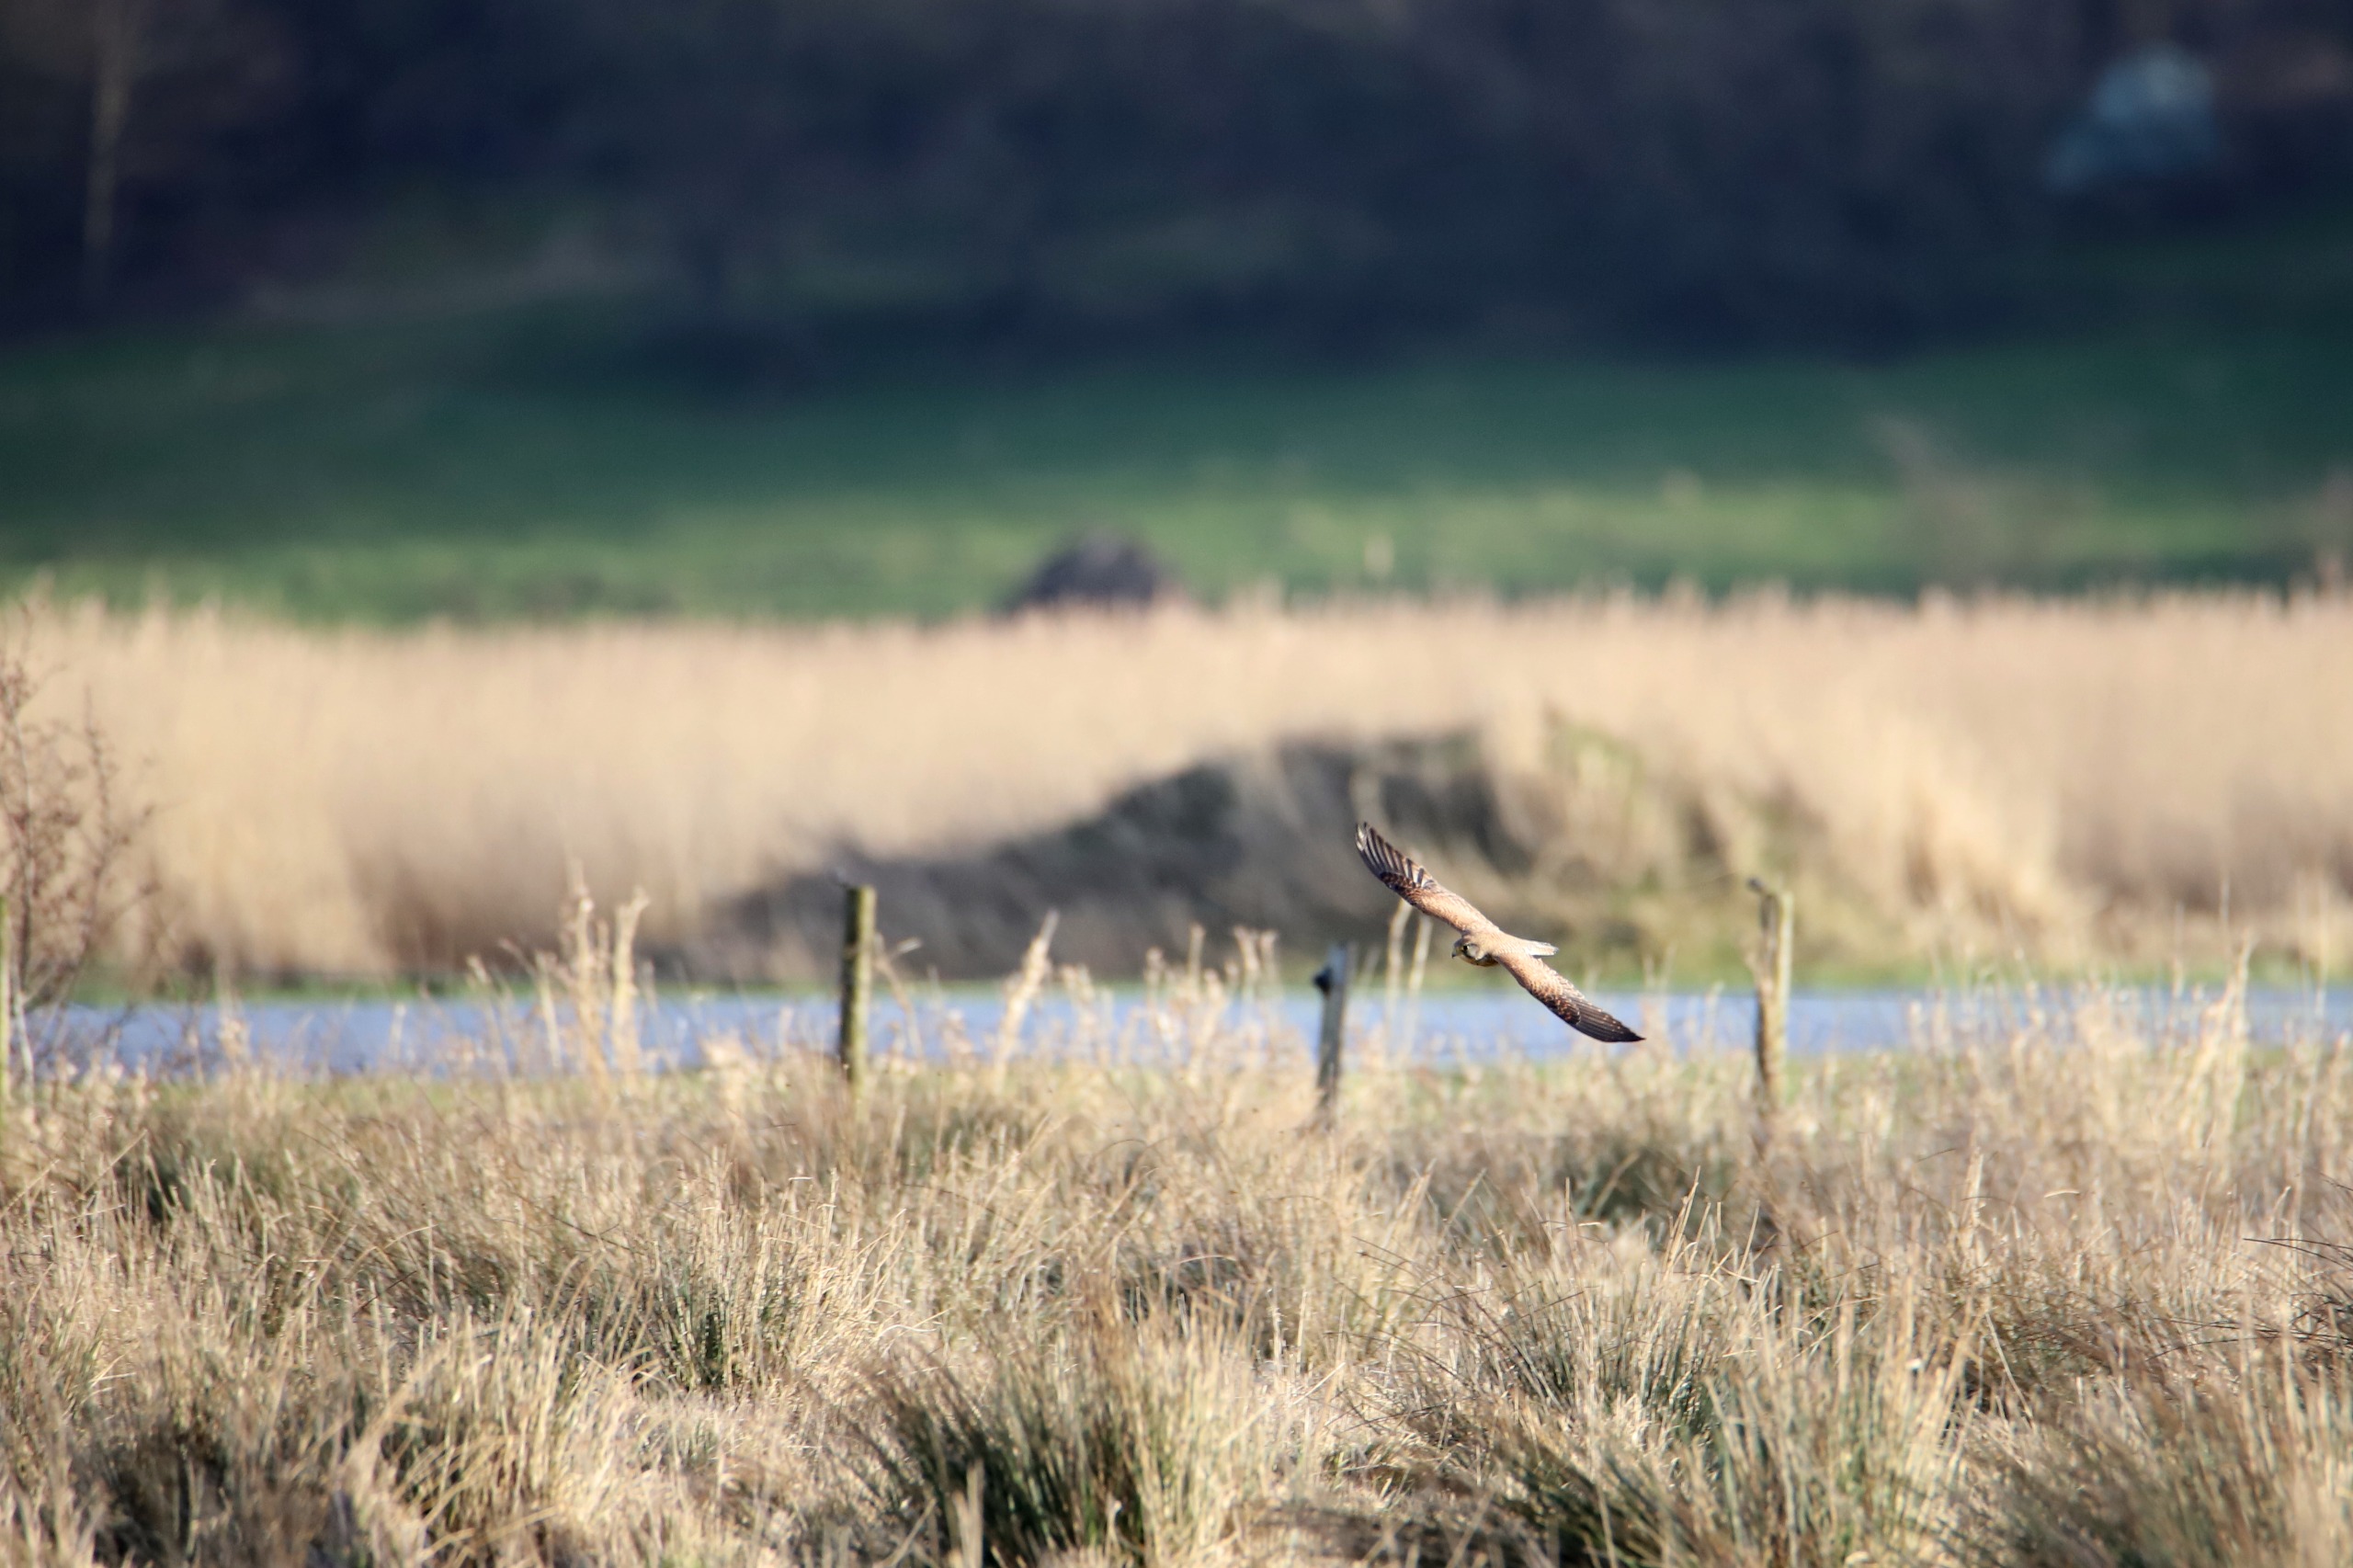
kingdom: Animalia
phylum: Chordata
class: Aves
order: Falconiformes
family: Falconidae
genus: Falco
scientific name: Falco tinnunculus
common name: Tårnfalk
